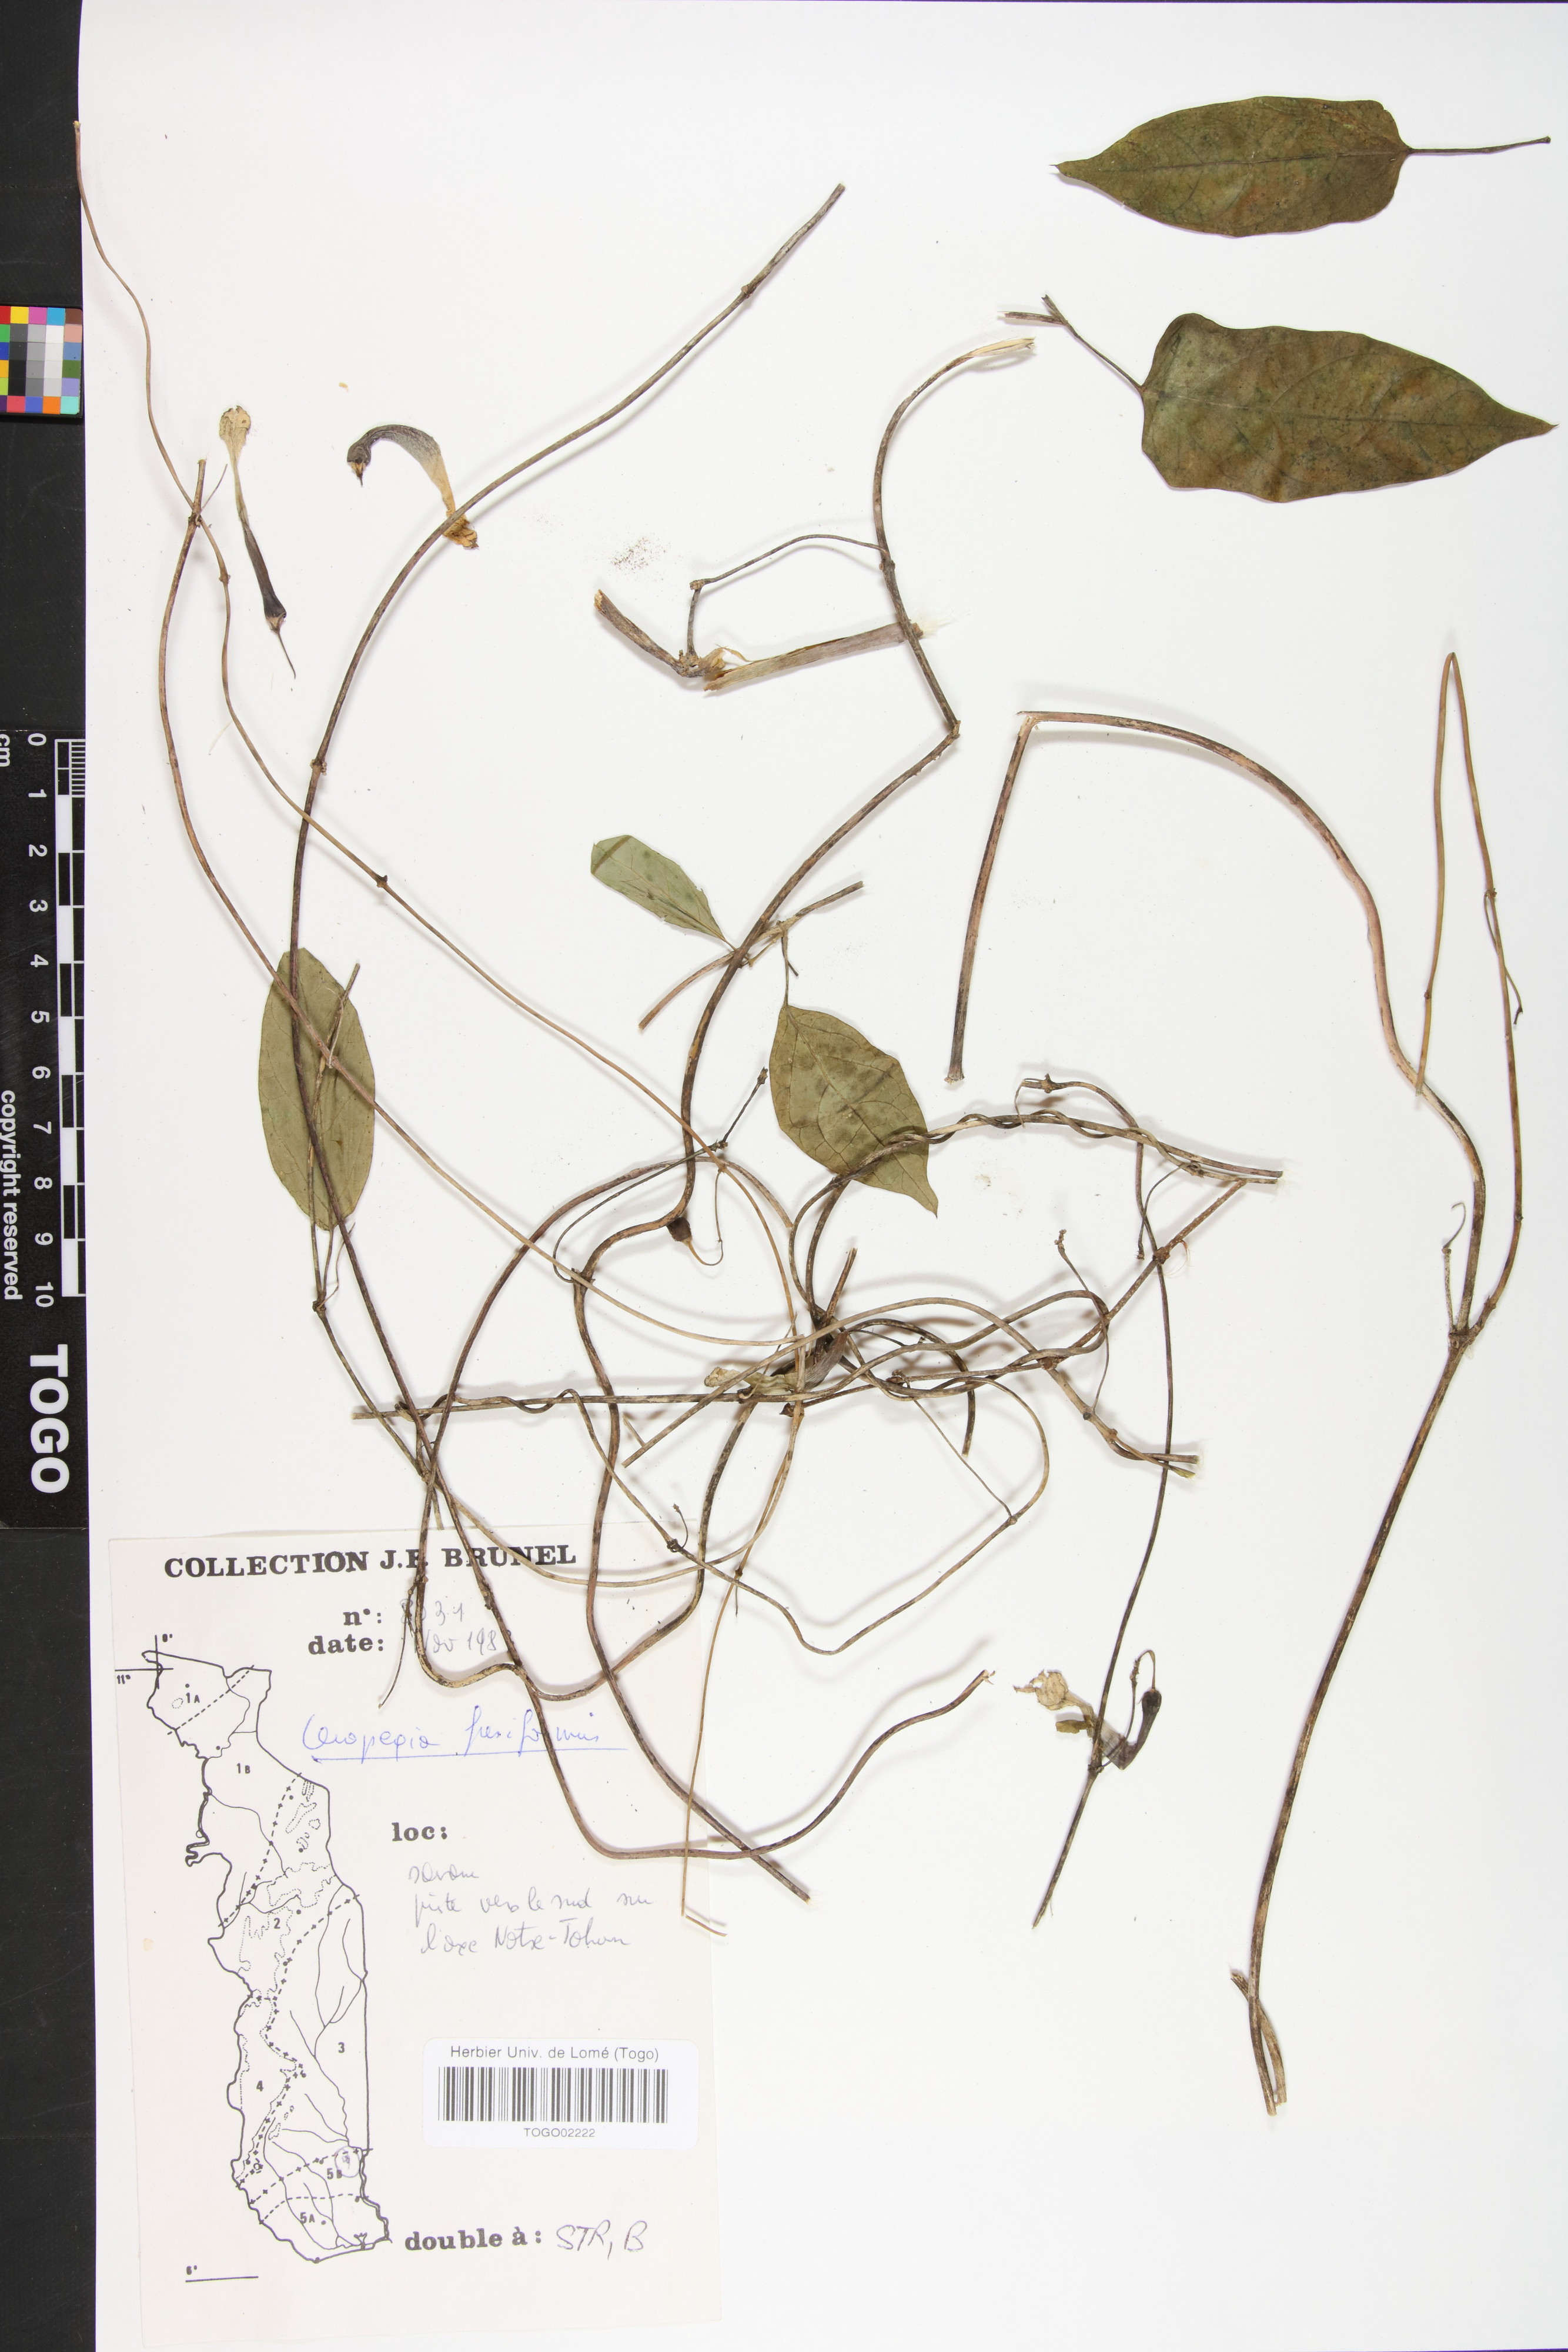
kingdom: Plantae
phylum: Tracheophyta
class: Magnoliopsida
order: Gentianales
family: Apocynaceae
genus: Ceropegia
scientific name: Ceropegia fusiformis
